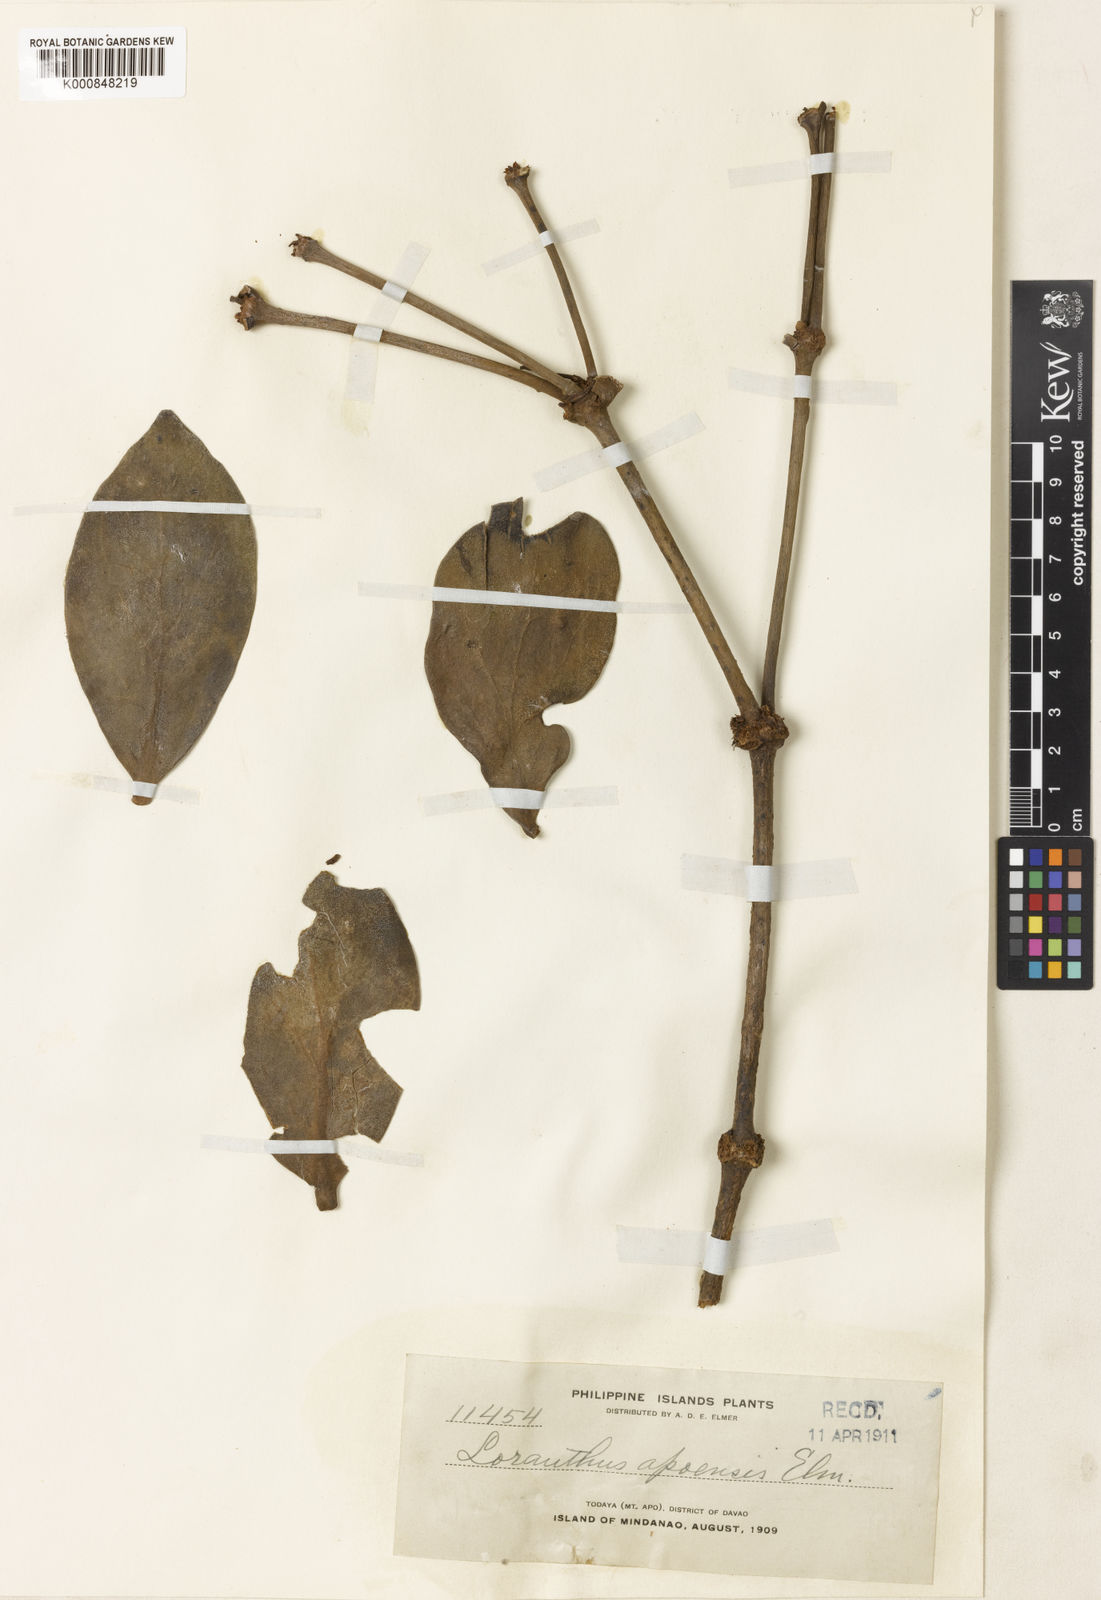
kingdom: Plantae
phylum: Tracheophyta
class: Magnoliopsida
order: Santalales
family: Loranthaceae
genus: Amyema
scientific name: Amyema cuernosensis
